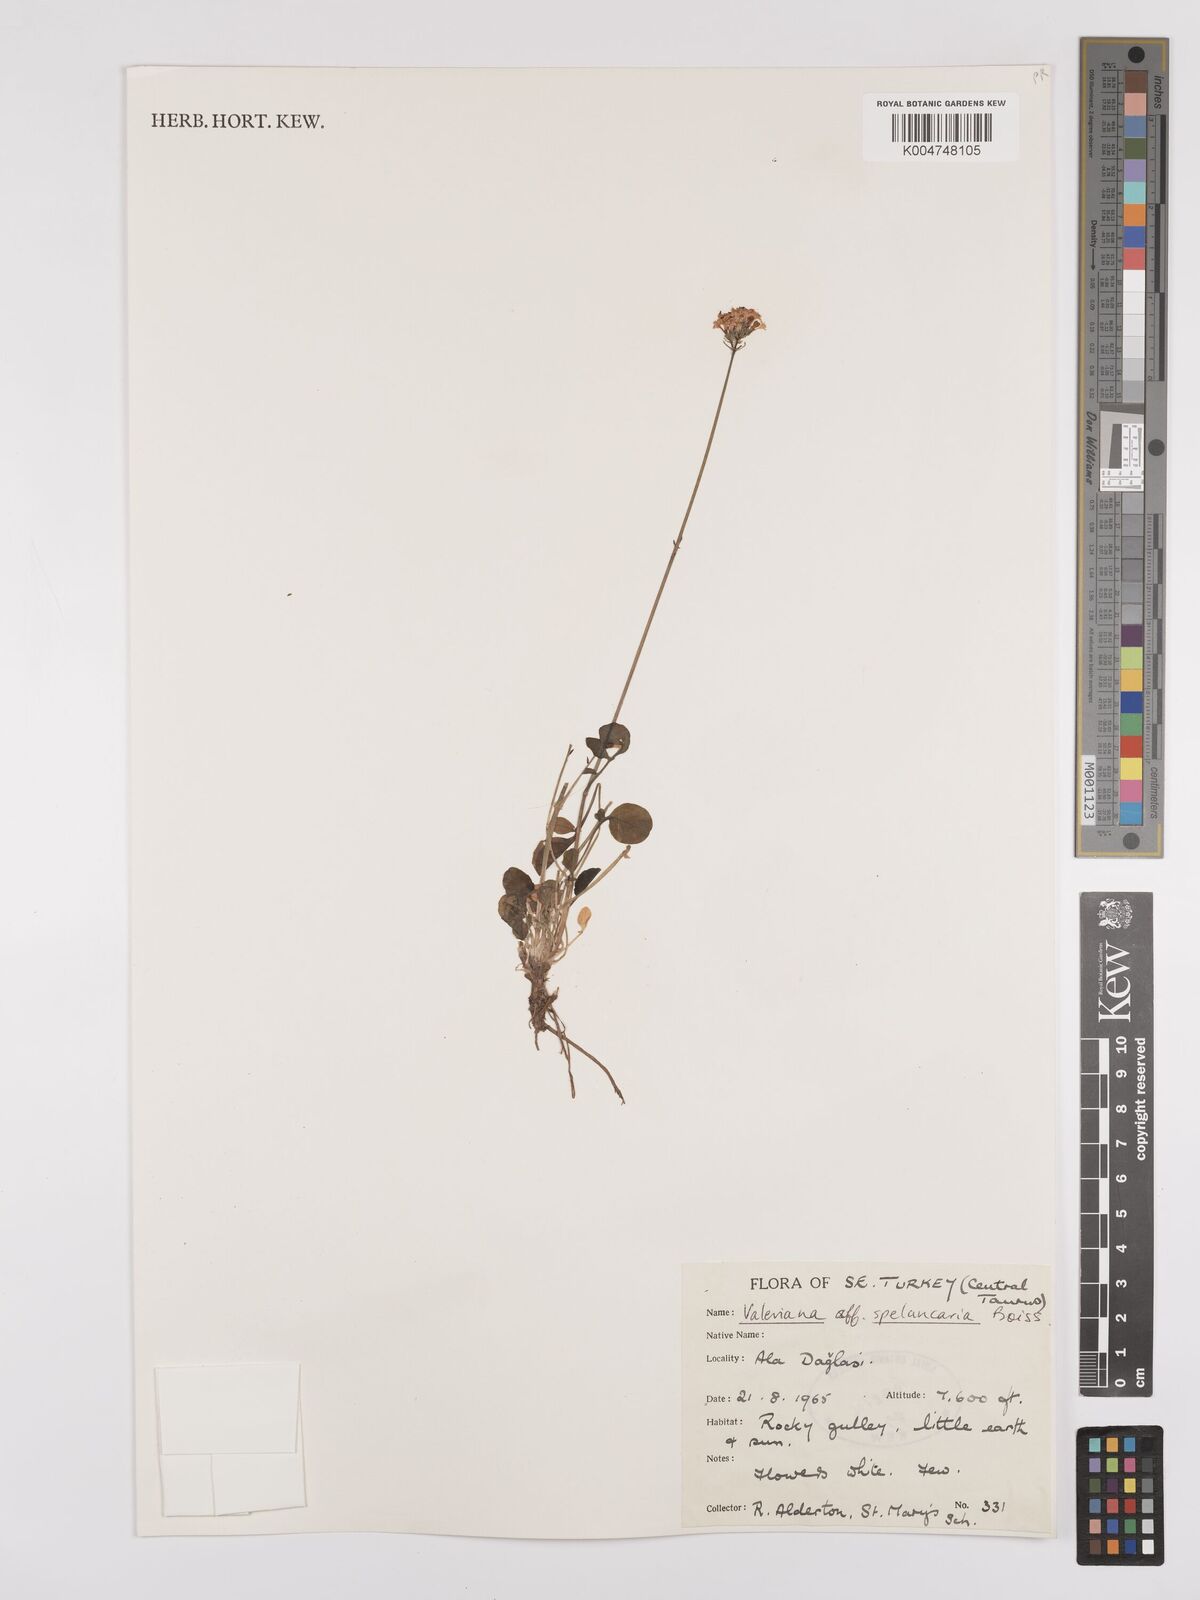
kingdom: Plantae
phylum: Tracheophyta
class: Magnoliopsida
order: Dipsacales
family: Caprifoliaceae
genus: Valeriana
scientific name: Valeriana petrophila
